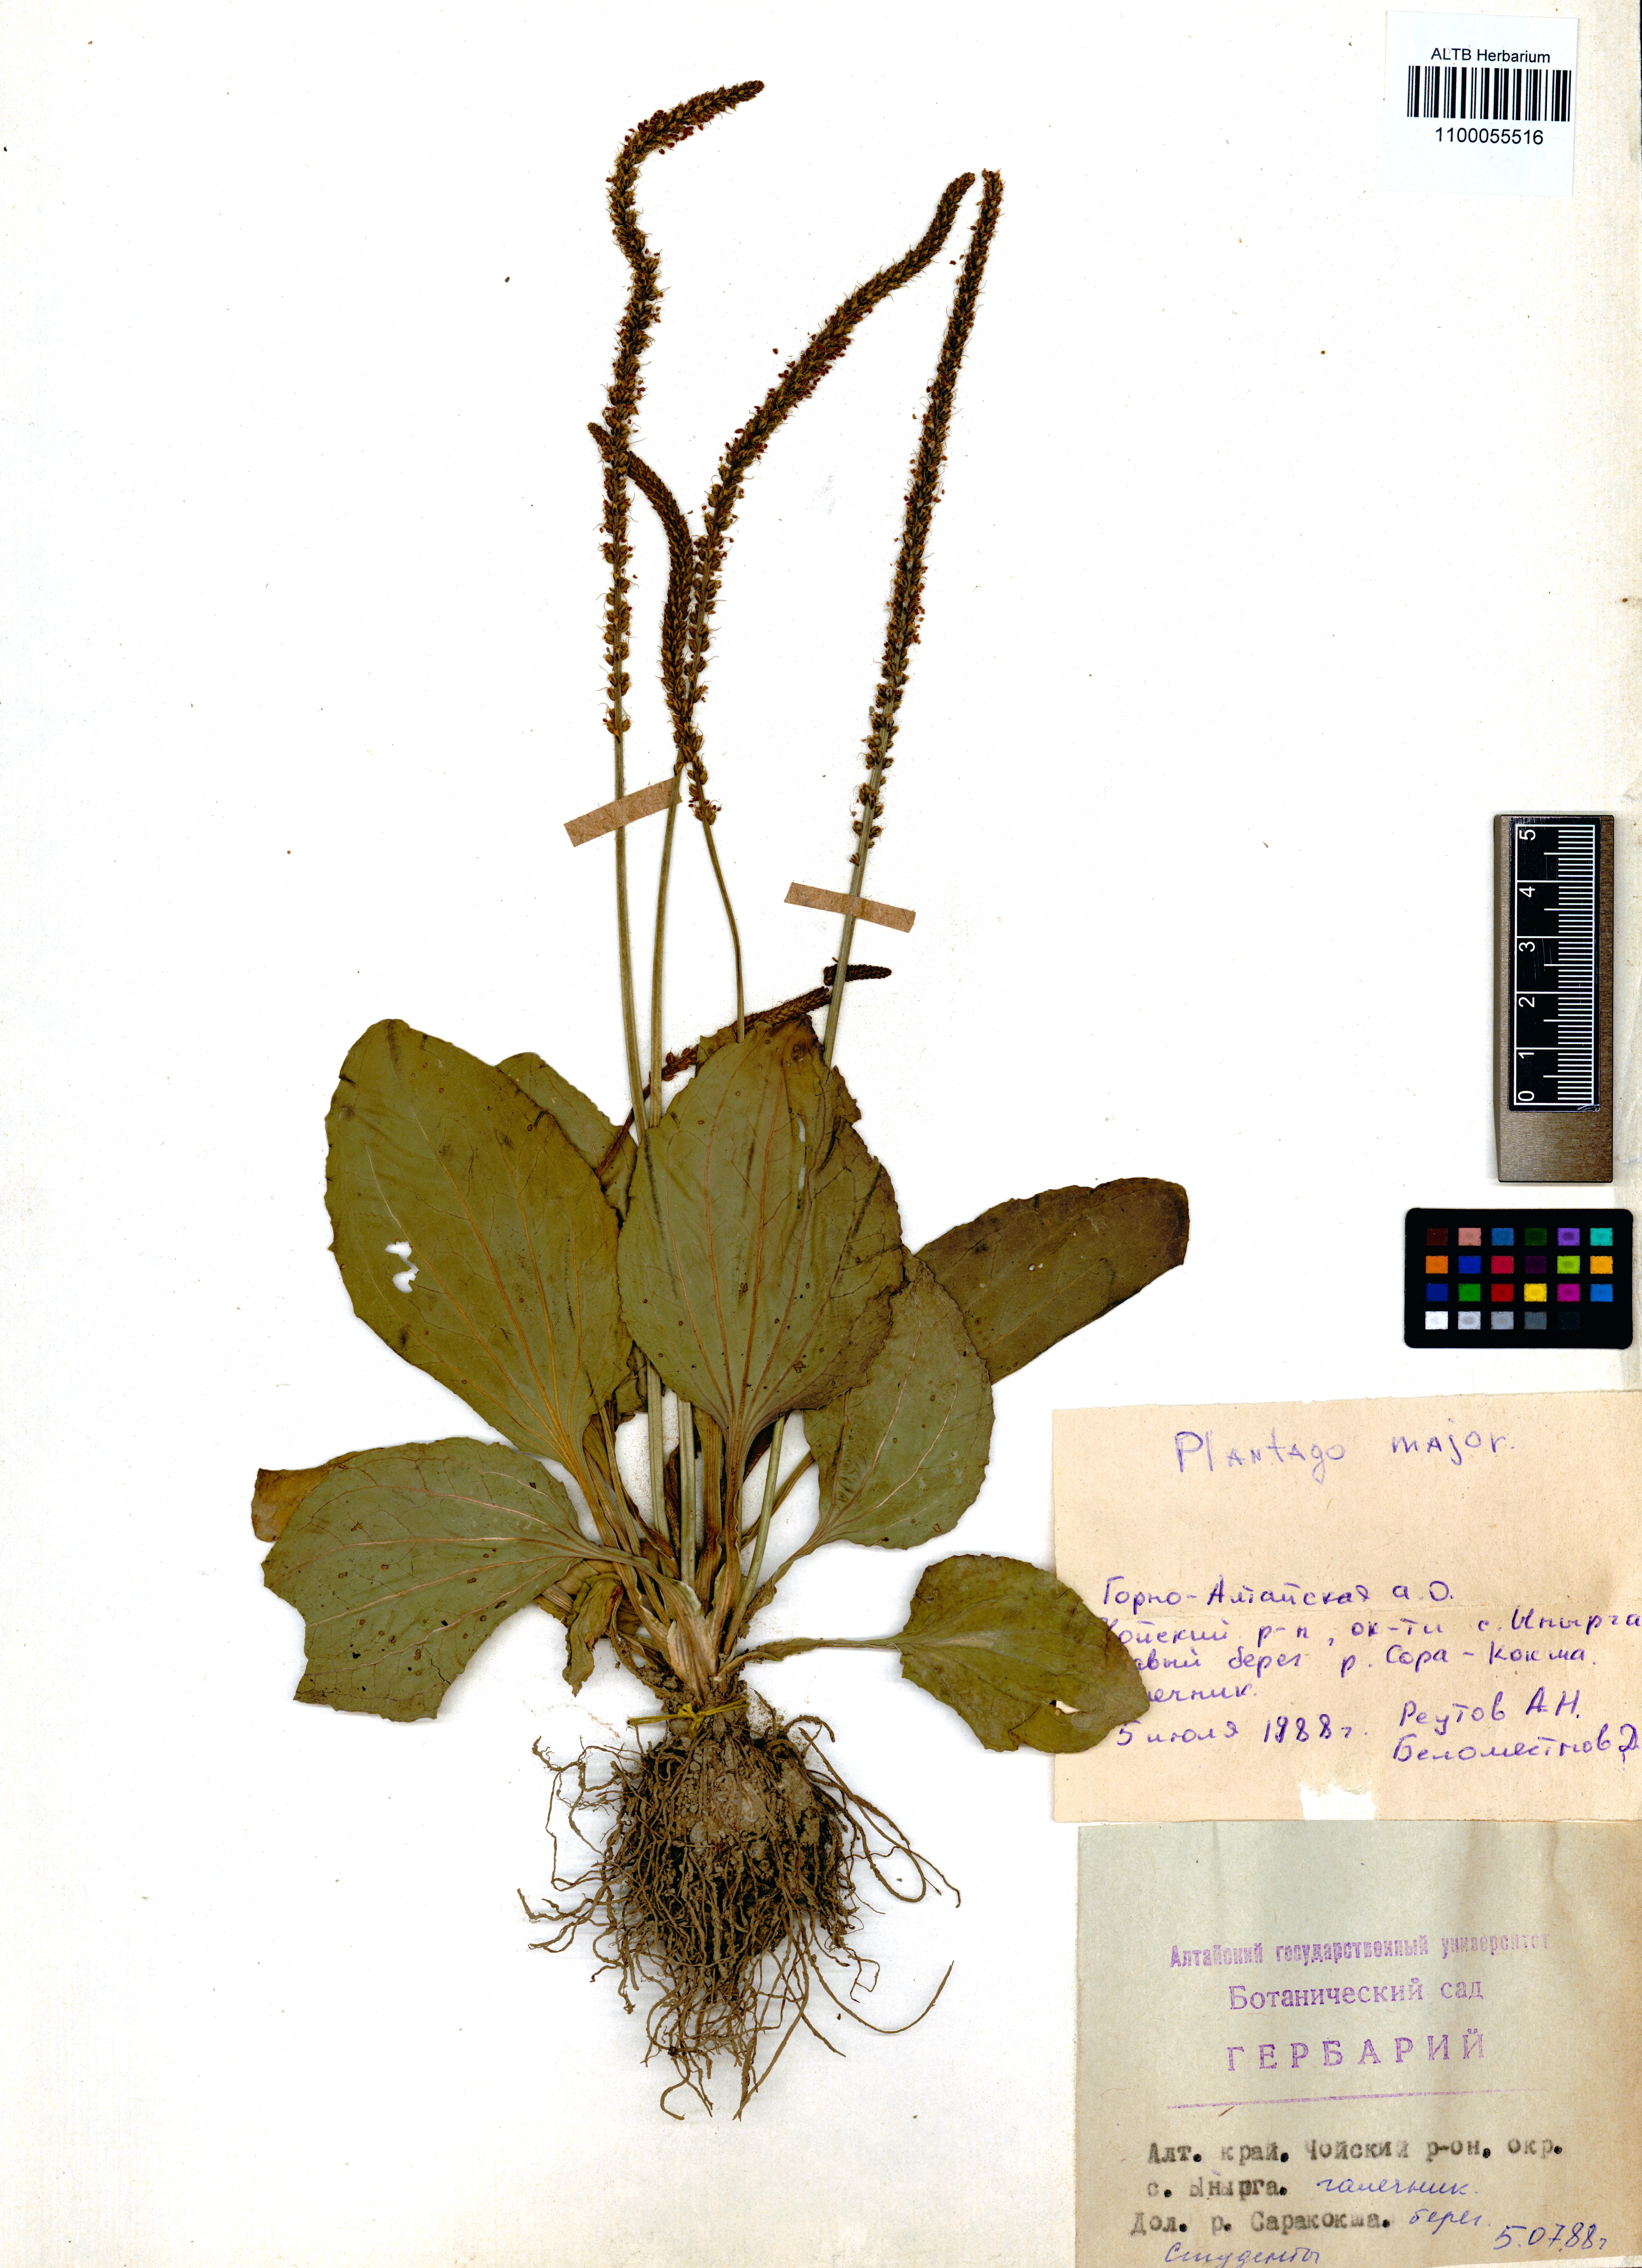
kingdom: Plantae
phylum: Tracheophyta
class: Magnoliopsida
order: Lamiales
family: Plantaginaceae
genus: Plantago
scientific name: Plantago major
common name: Common plantain
